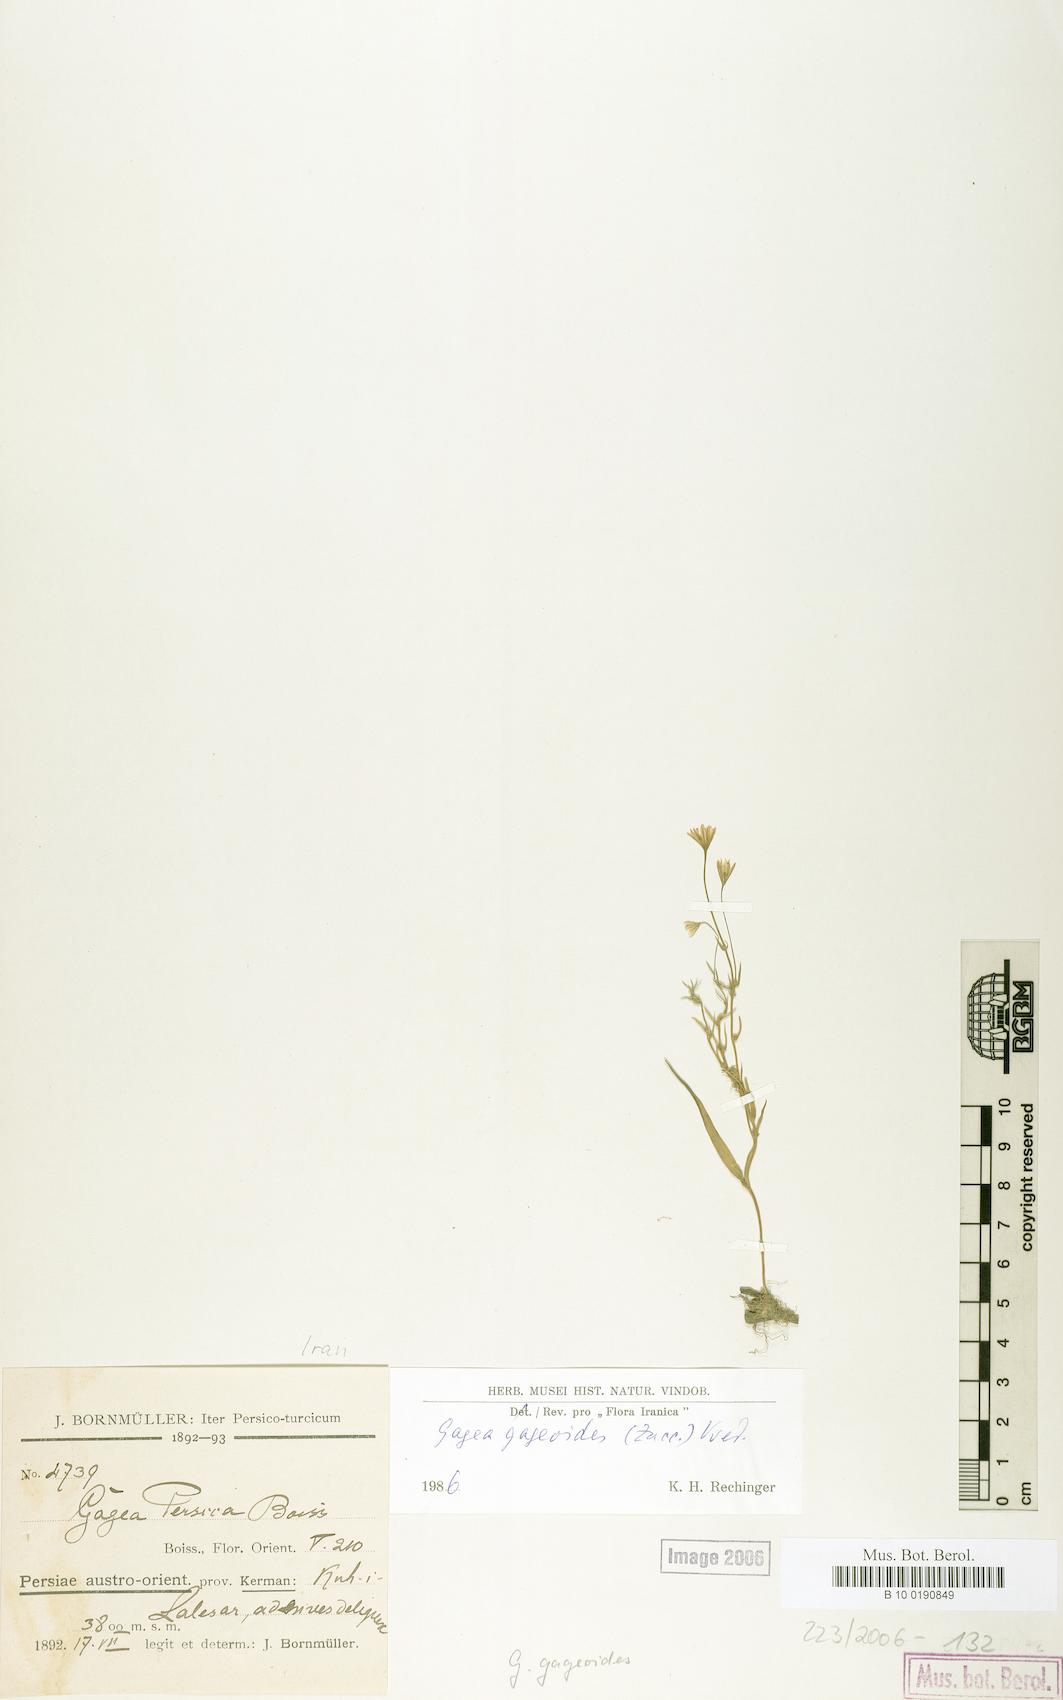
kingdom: Plantae
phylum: Tracheophyta
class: Liliopsida
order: Liliales
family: Liliaceae
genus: Gagea
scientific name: Gagea gageoides
